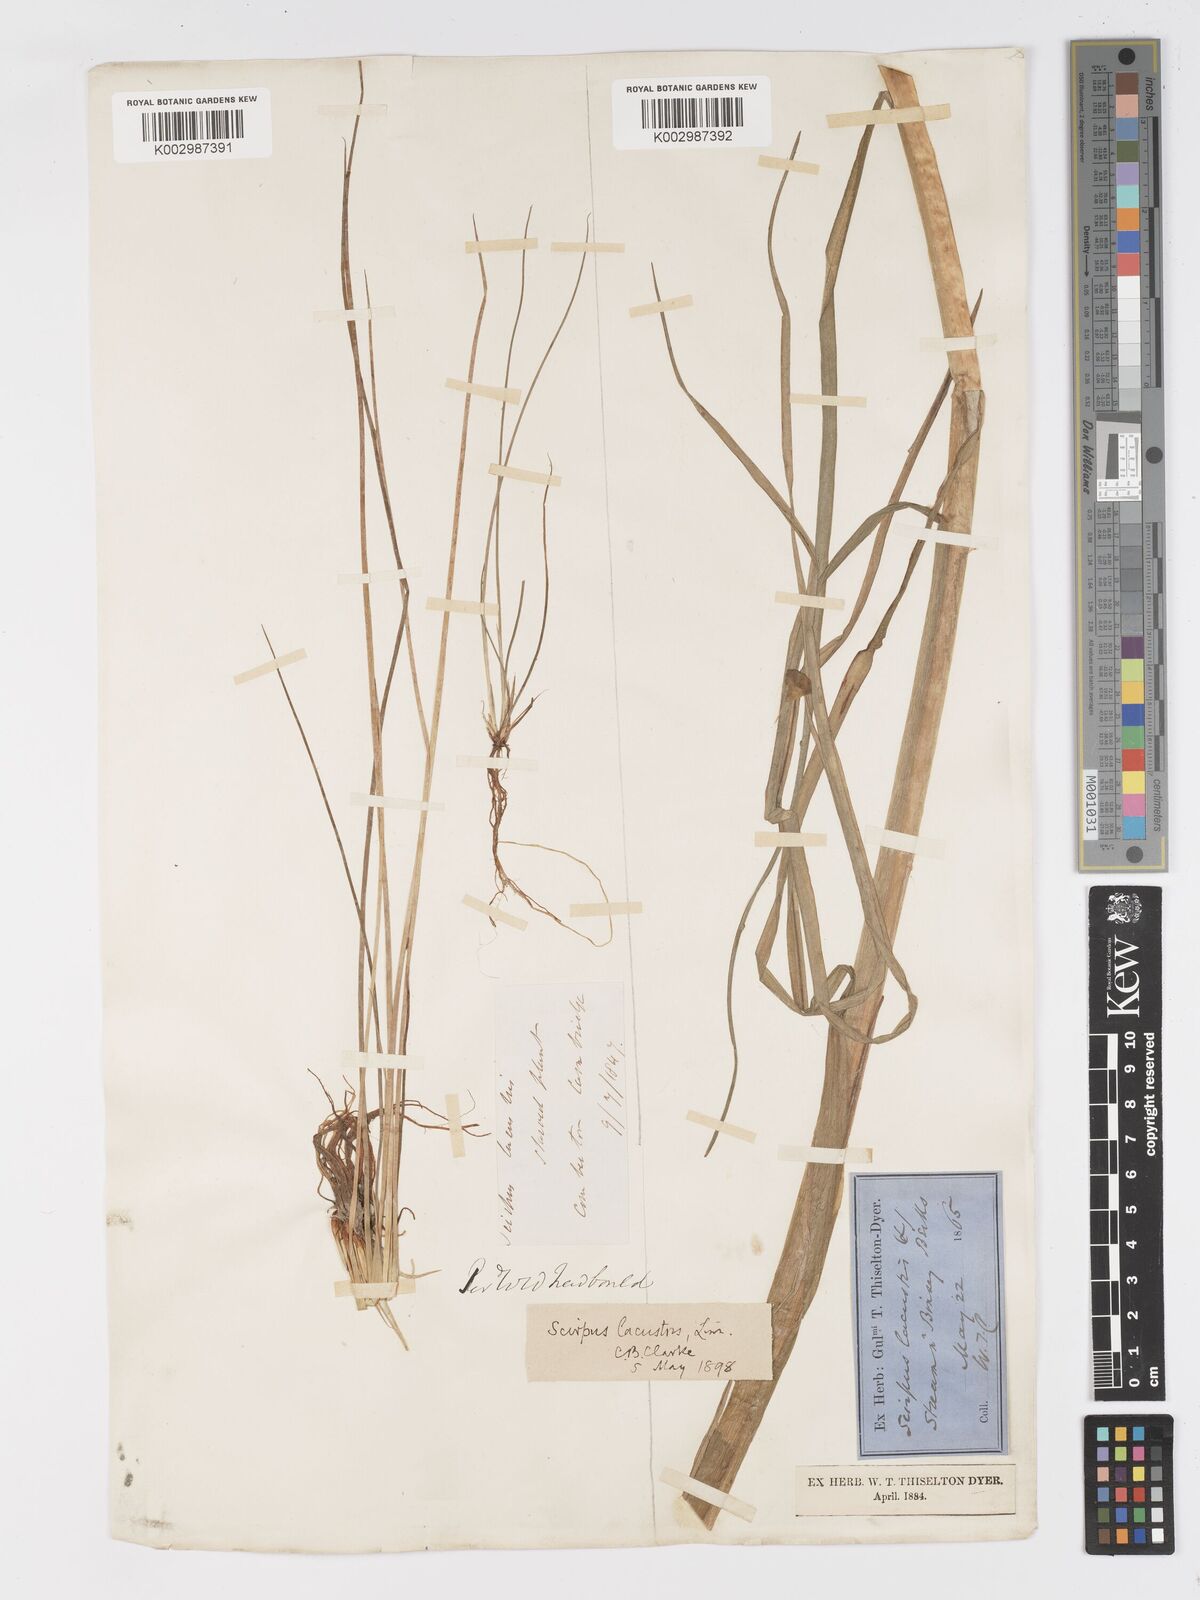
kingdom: Plantae
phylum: Tracheophyta
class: Liliopsida
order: Poales
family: Cyperaceae
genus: Schoenoplectus
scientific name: Schoenoplectus lacustris
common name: Common club-rush
